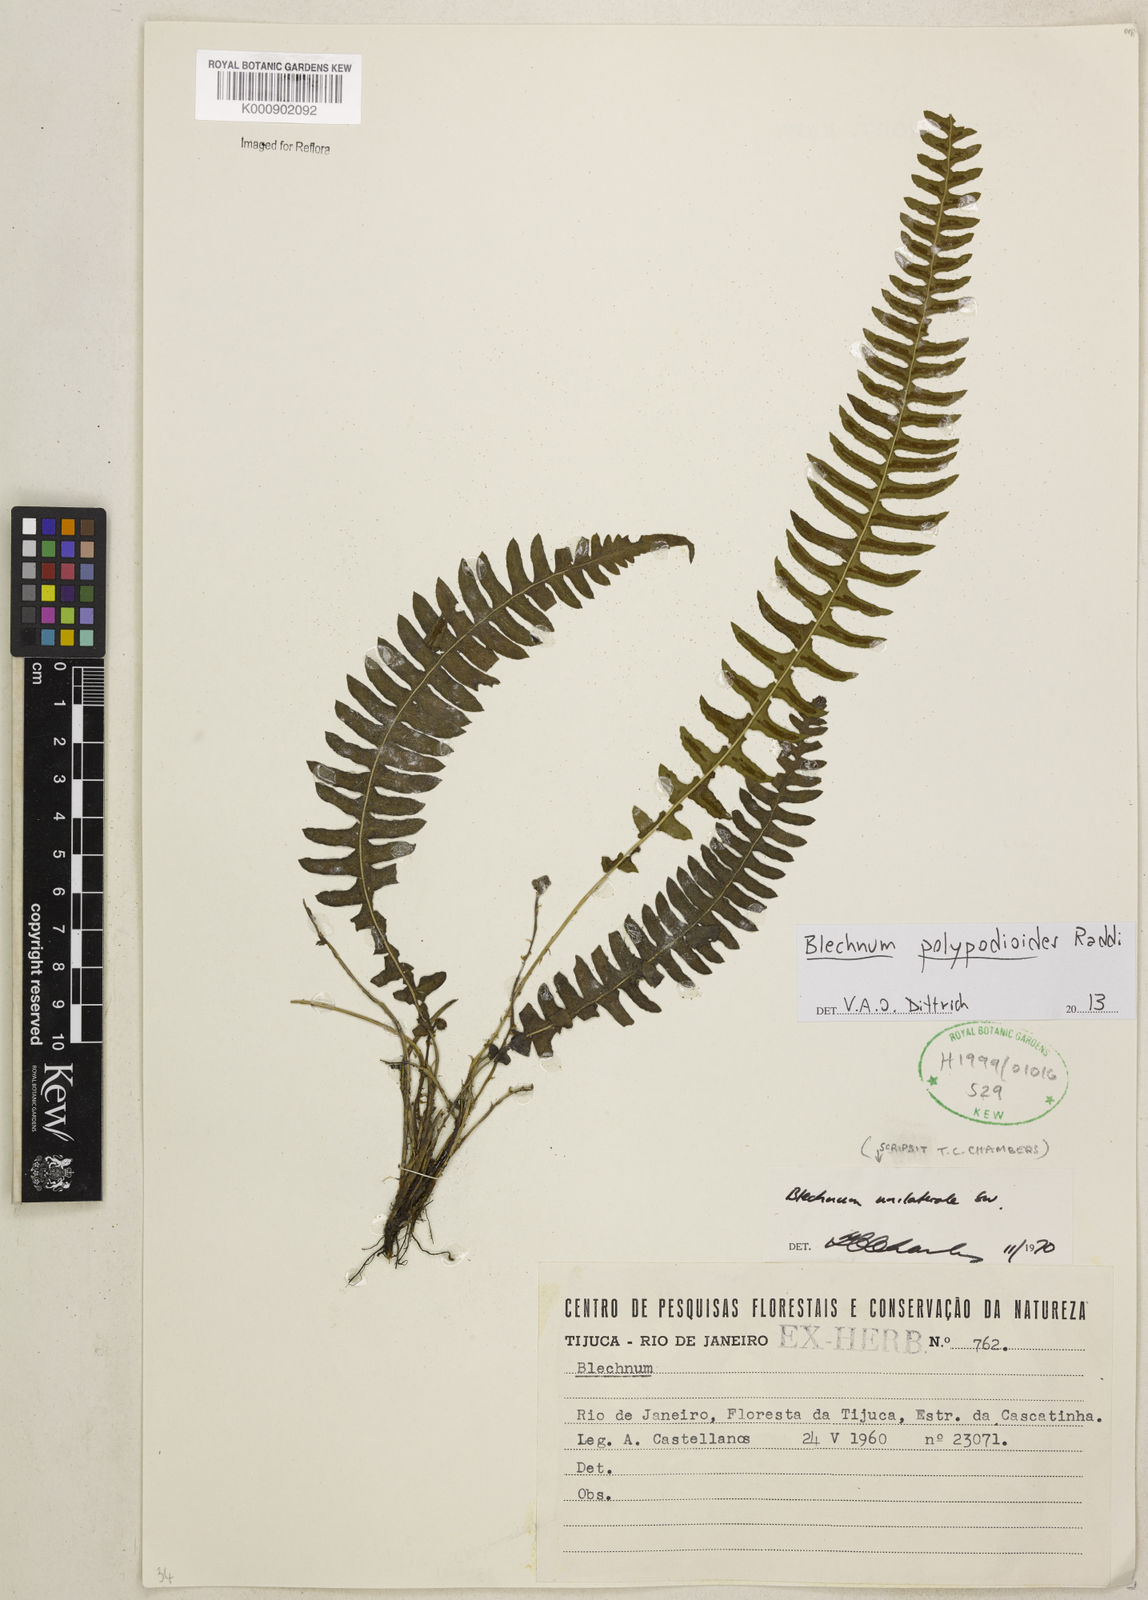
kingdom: Plantae
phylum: Tracheophyta
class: Polypodiopsida
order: Polypodiales
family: Blechnaceae
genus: Blechnum
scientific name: Blechnum polypodioides
